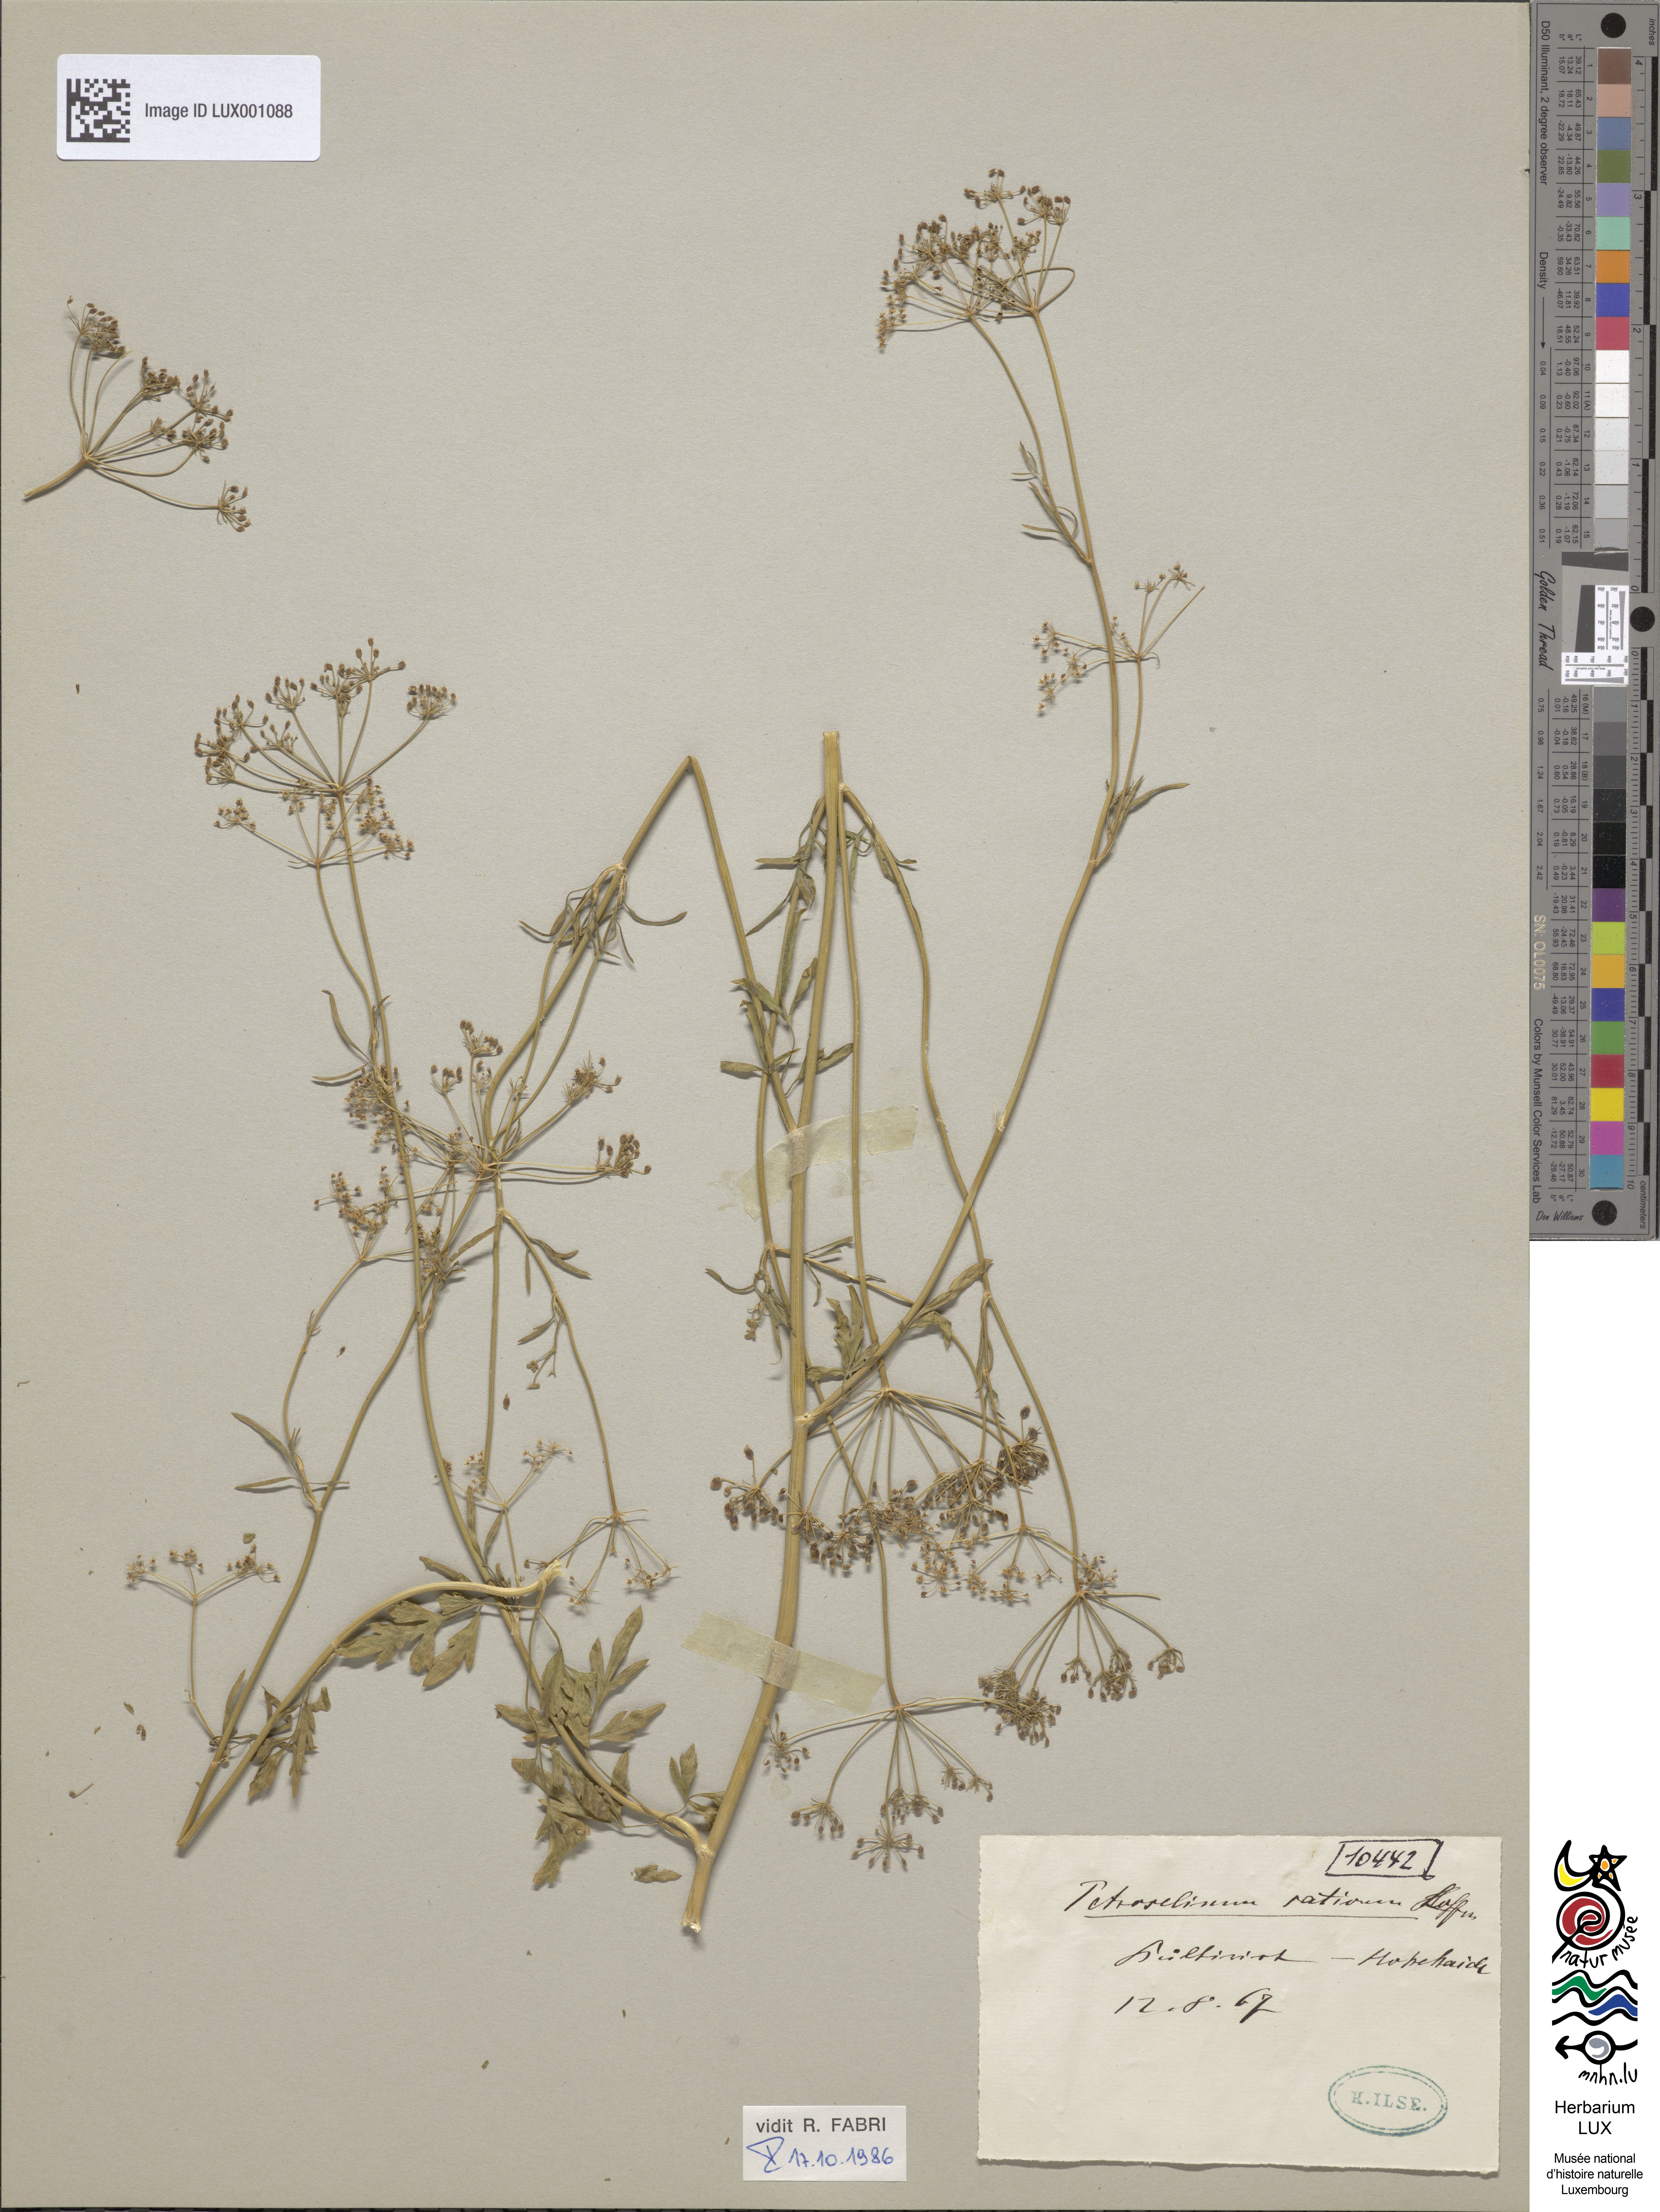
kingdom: Plantae
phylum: Tracheophyta
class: Magnoliopsida
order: Apiales
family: Apiaceae
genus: Petroselinum
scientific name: Petroselinum crispum
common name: Parsley
